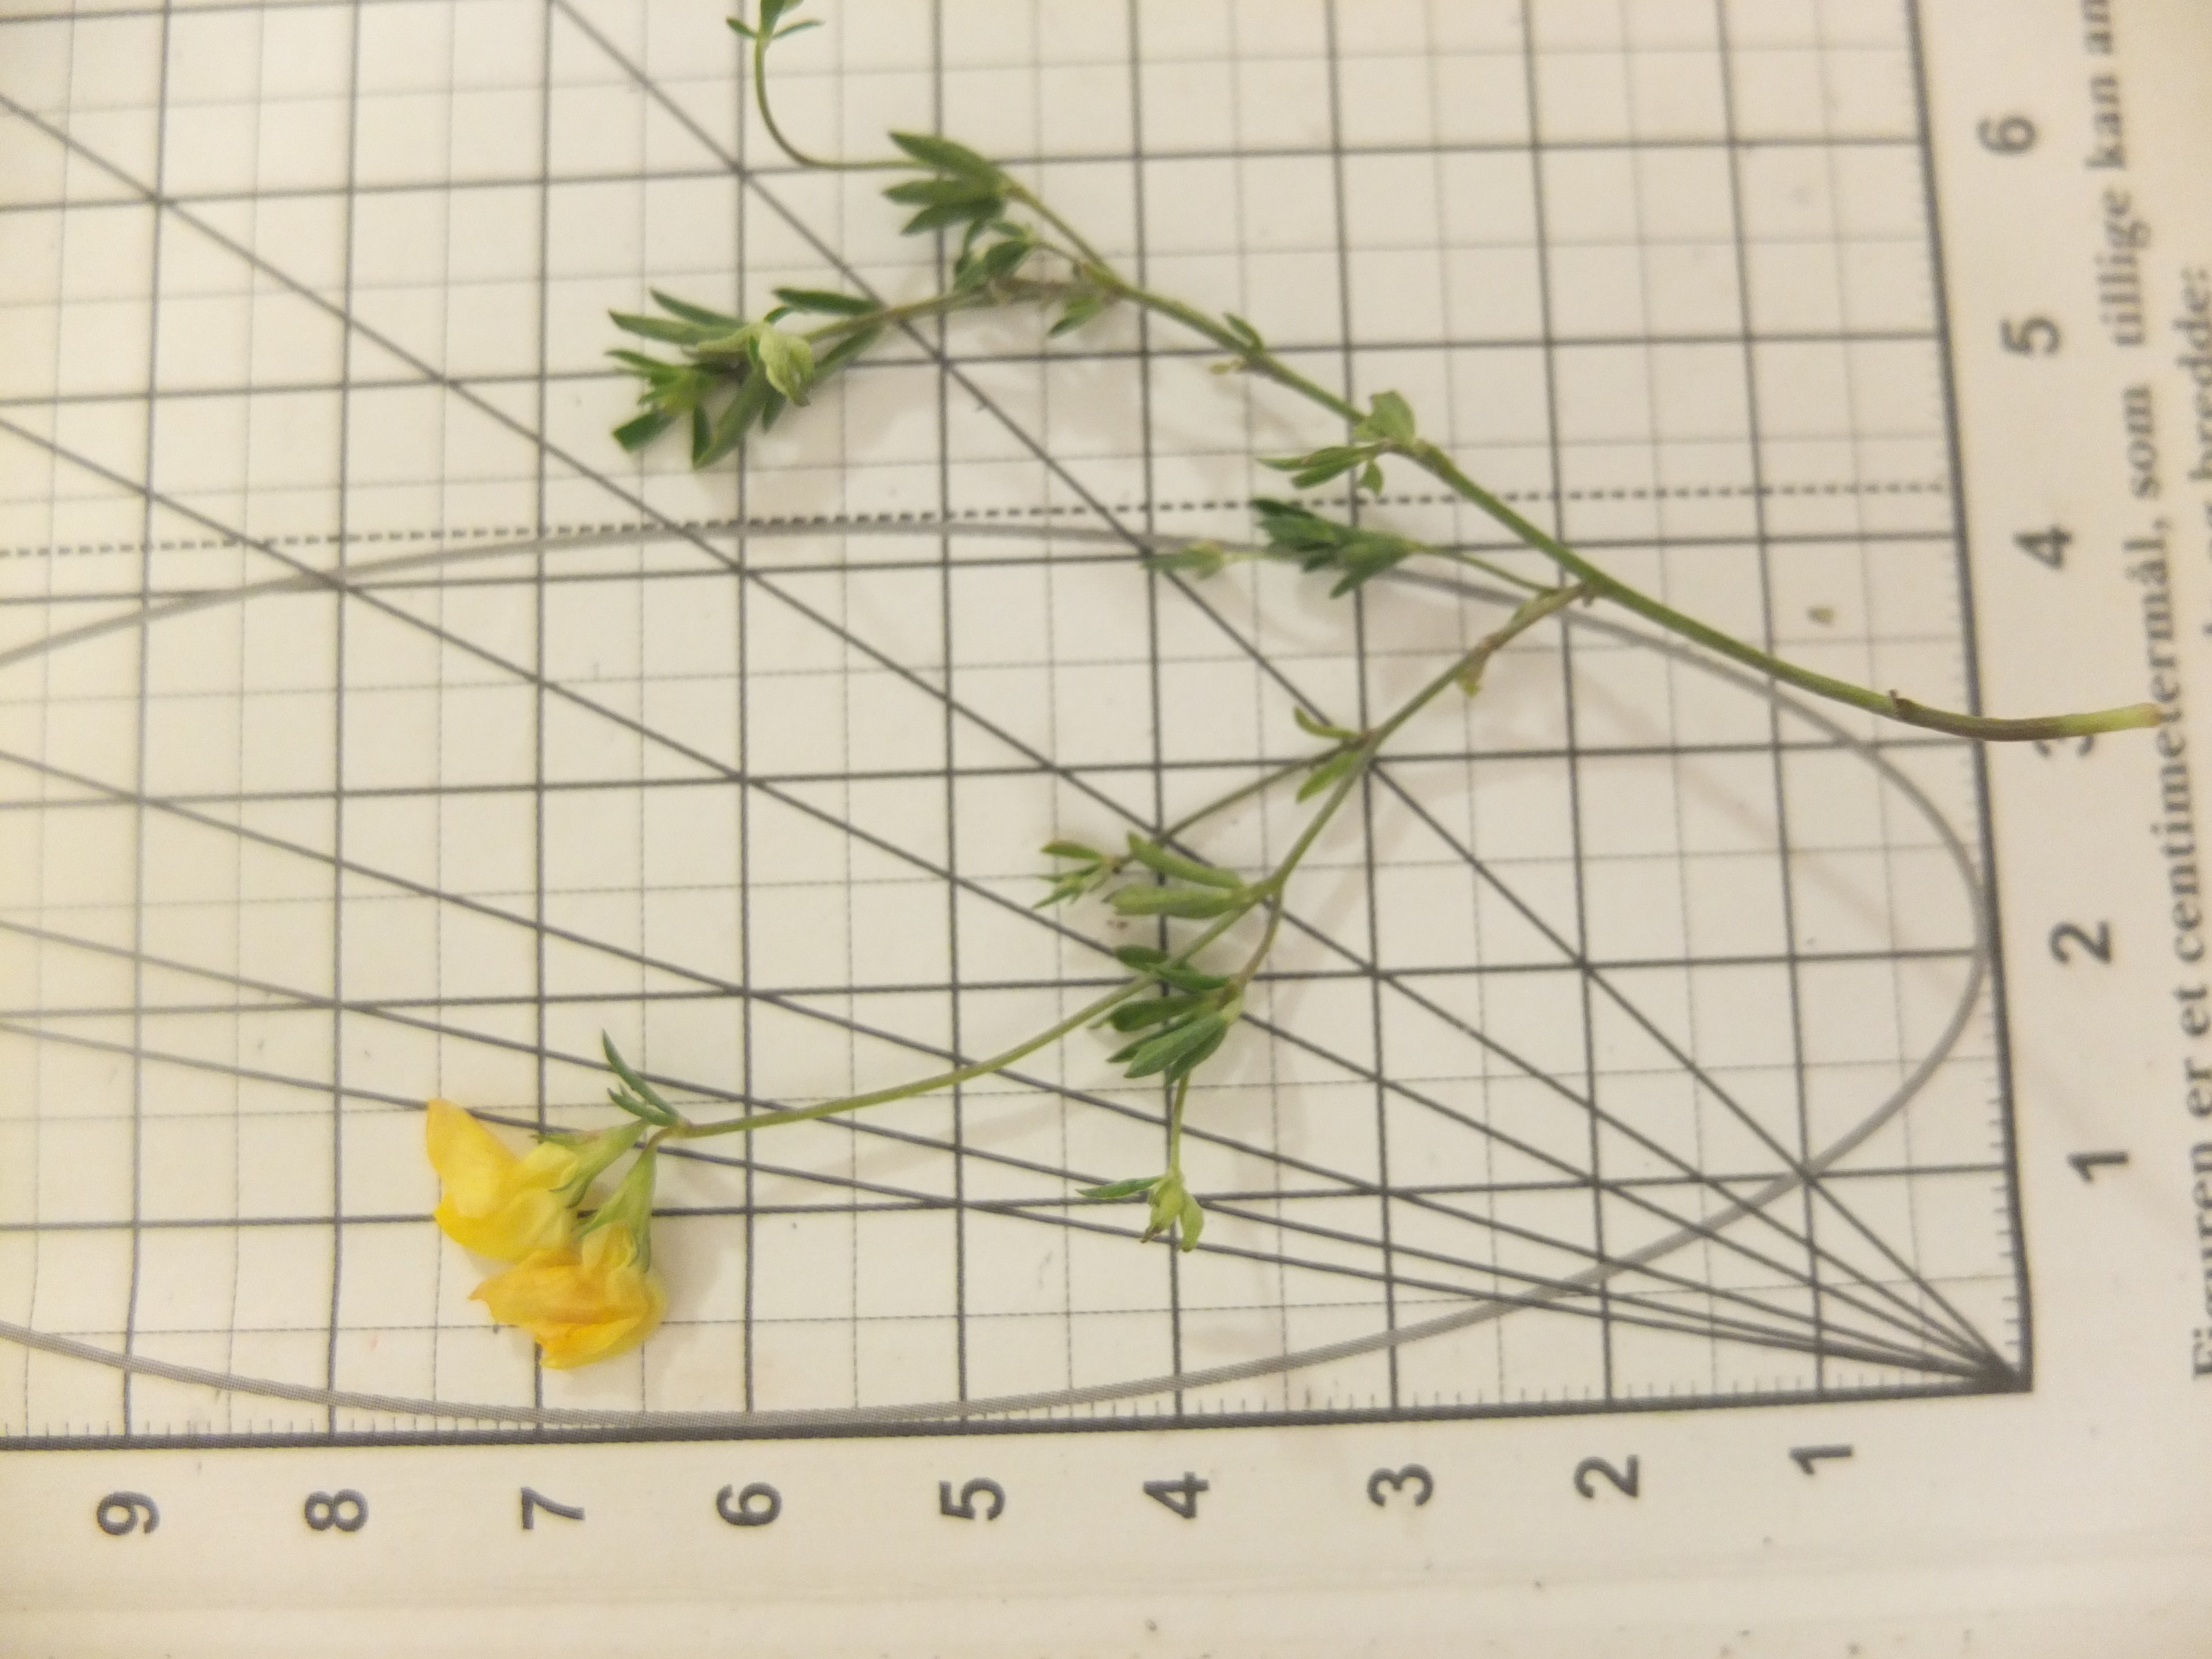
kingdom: Plantae
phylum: Tracheophyta
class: Magnoliopsida
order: Fabales
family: Fabaceae
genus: Lotus
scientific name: Lotus tenuis
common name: Smalbladet kællingetand
